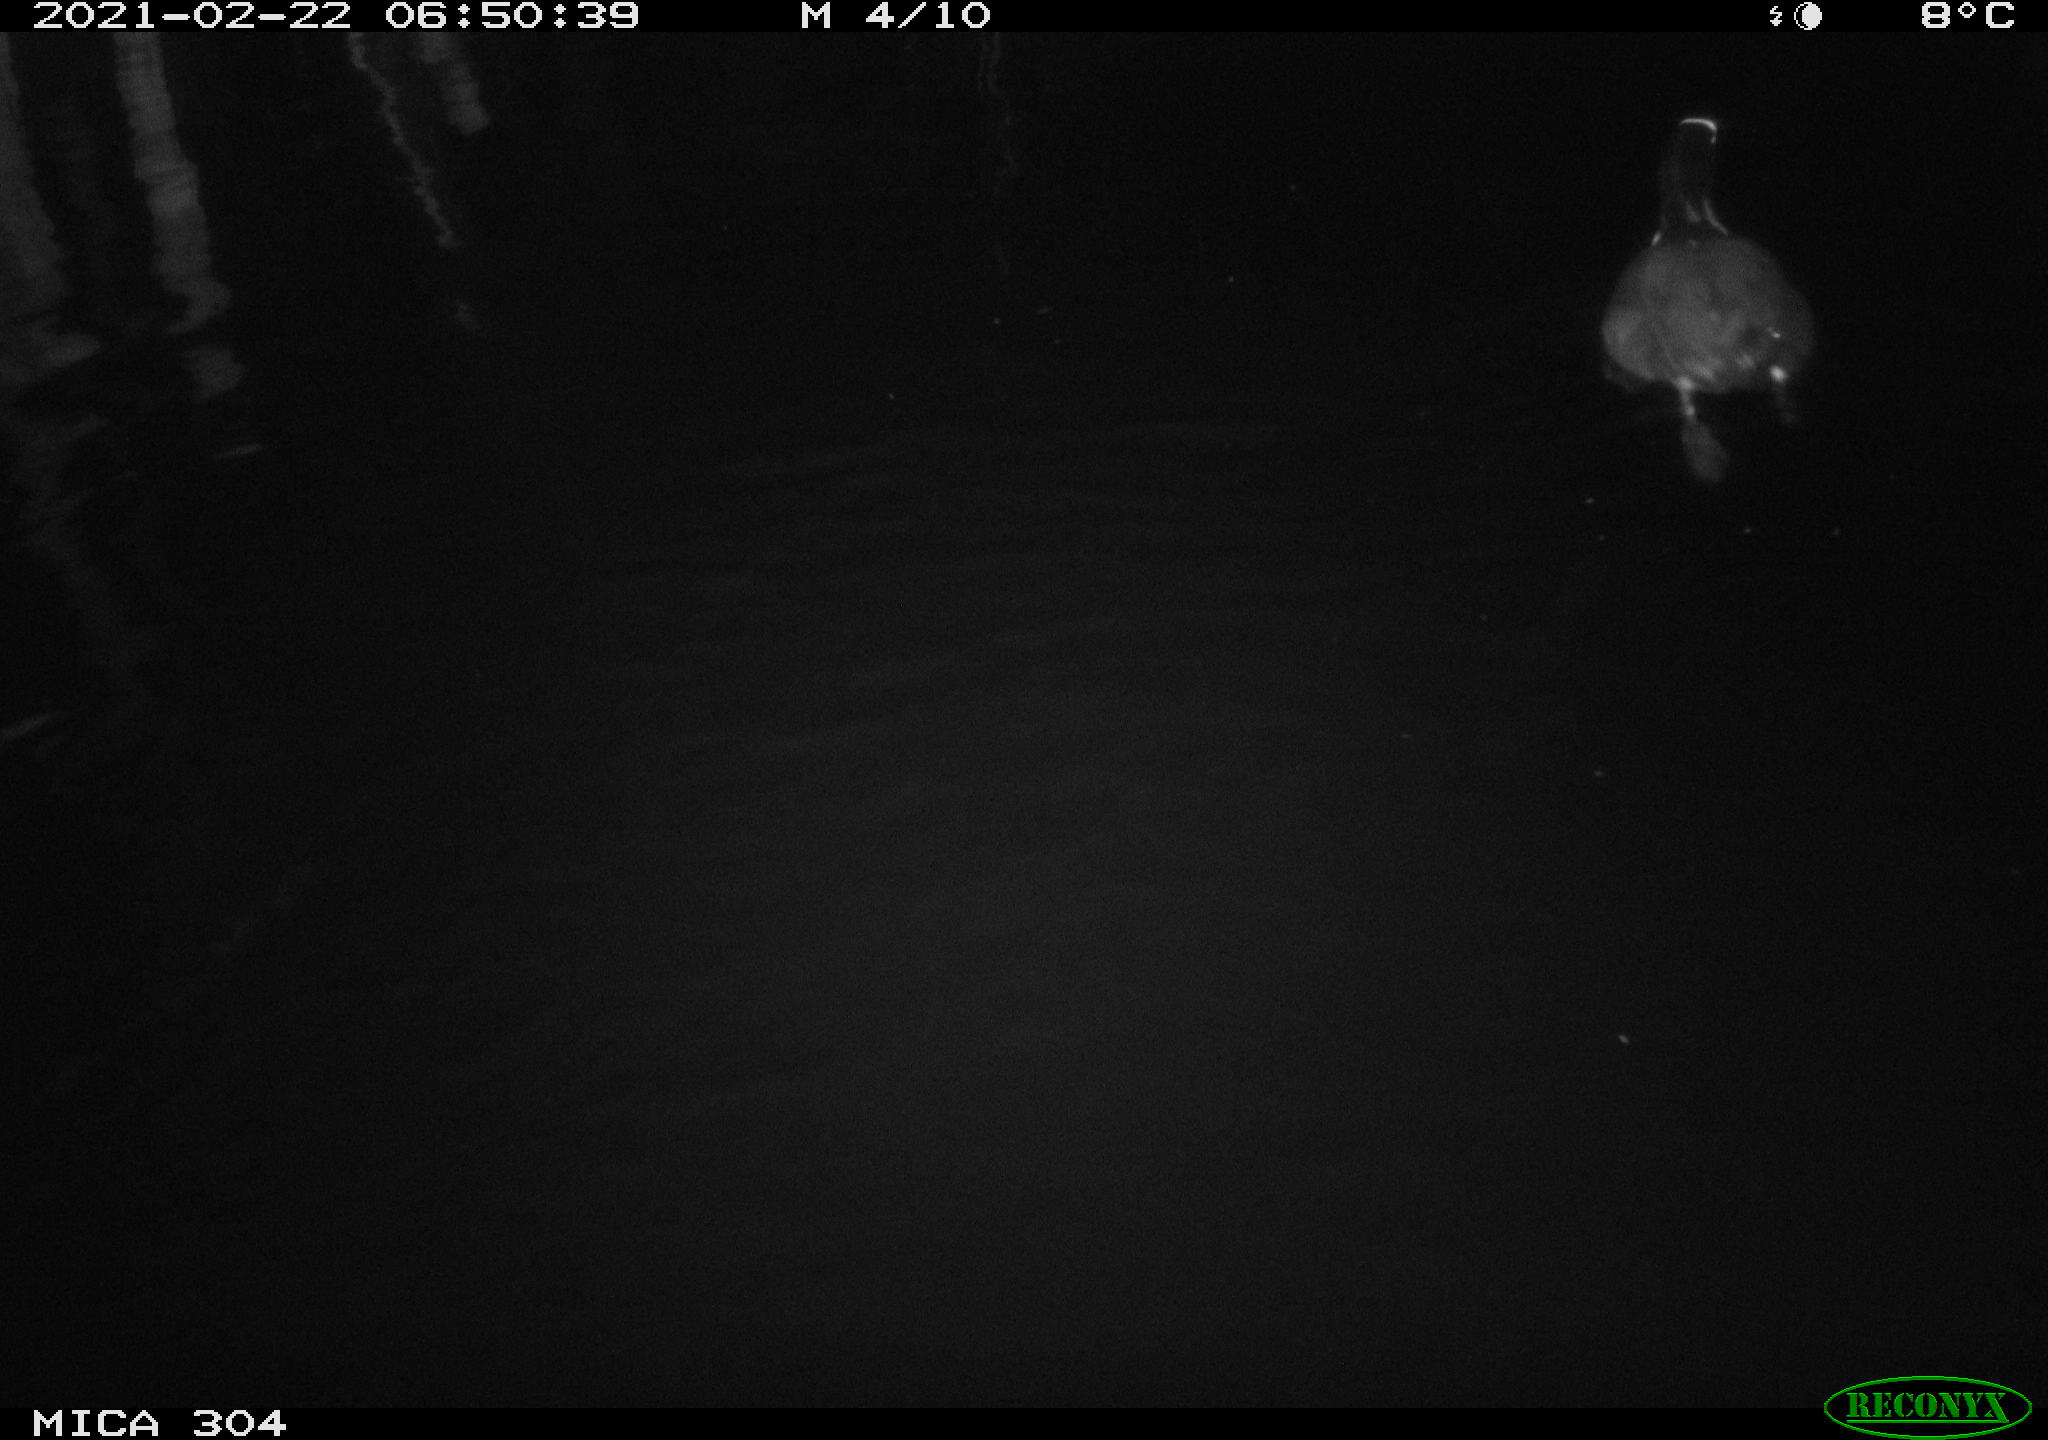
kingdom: Animalia
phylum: Chordata
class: Aves
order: Gruiformes
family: Rallidae
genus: Fulica
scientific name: Fulica atra
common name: Eurasian coot
